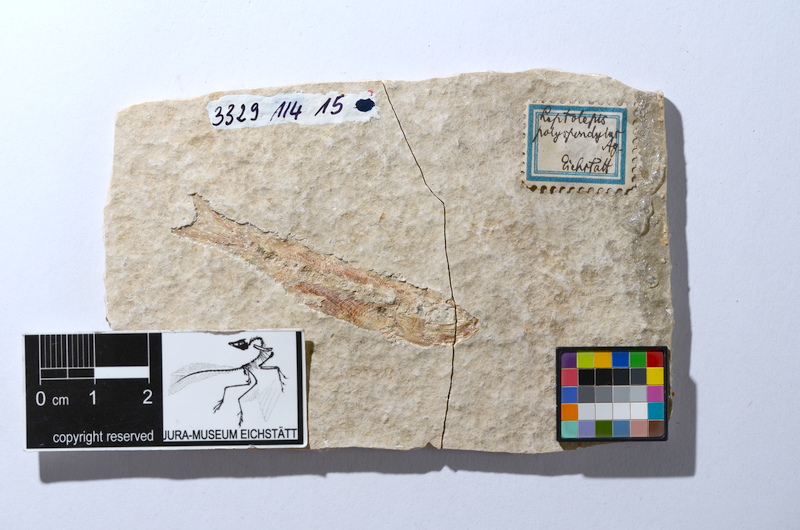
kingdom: Animalia
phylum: Chordata
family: Ascalaboidae
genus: Tharsis
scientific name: Tharsis dubius
